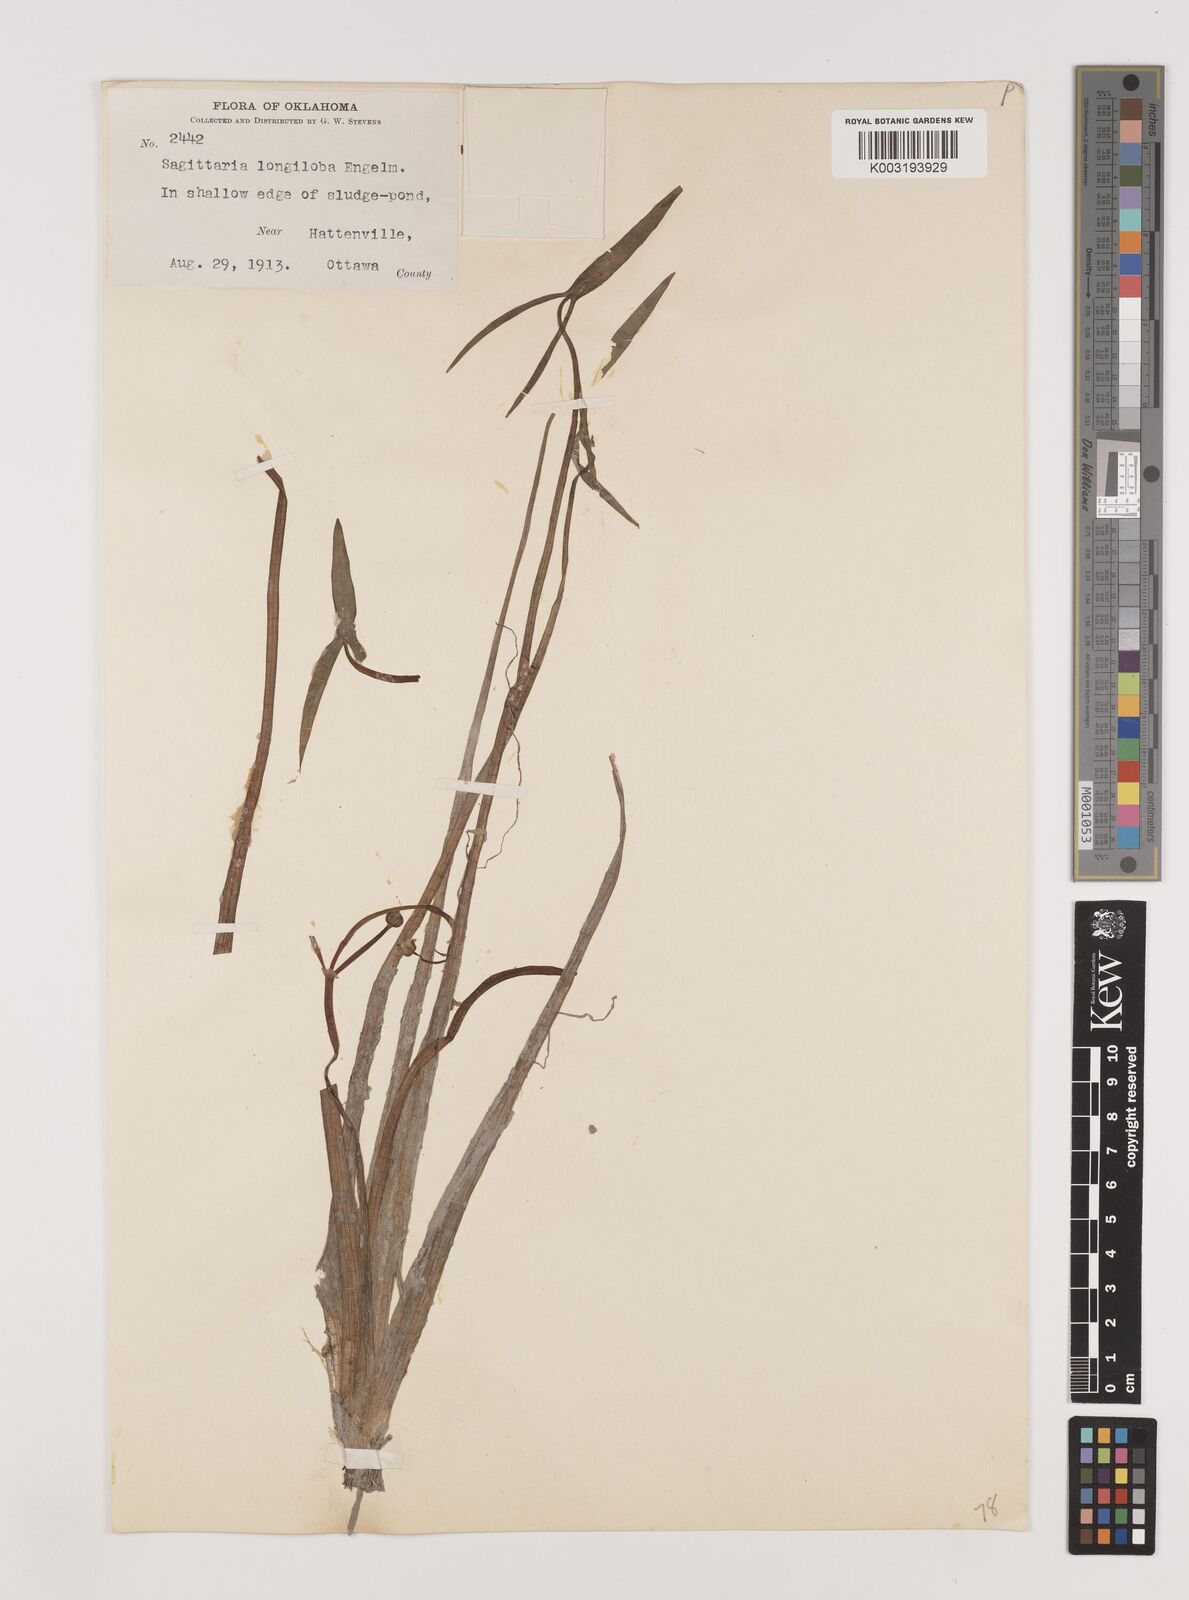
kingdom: Plantae
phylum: Tracheophyta
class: Liliopsida
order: Alismatales
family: Alismataceae
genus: Sagittaria
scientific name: Sagittaria longiloba
